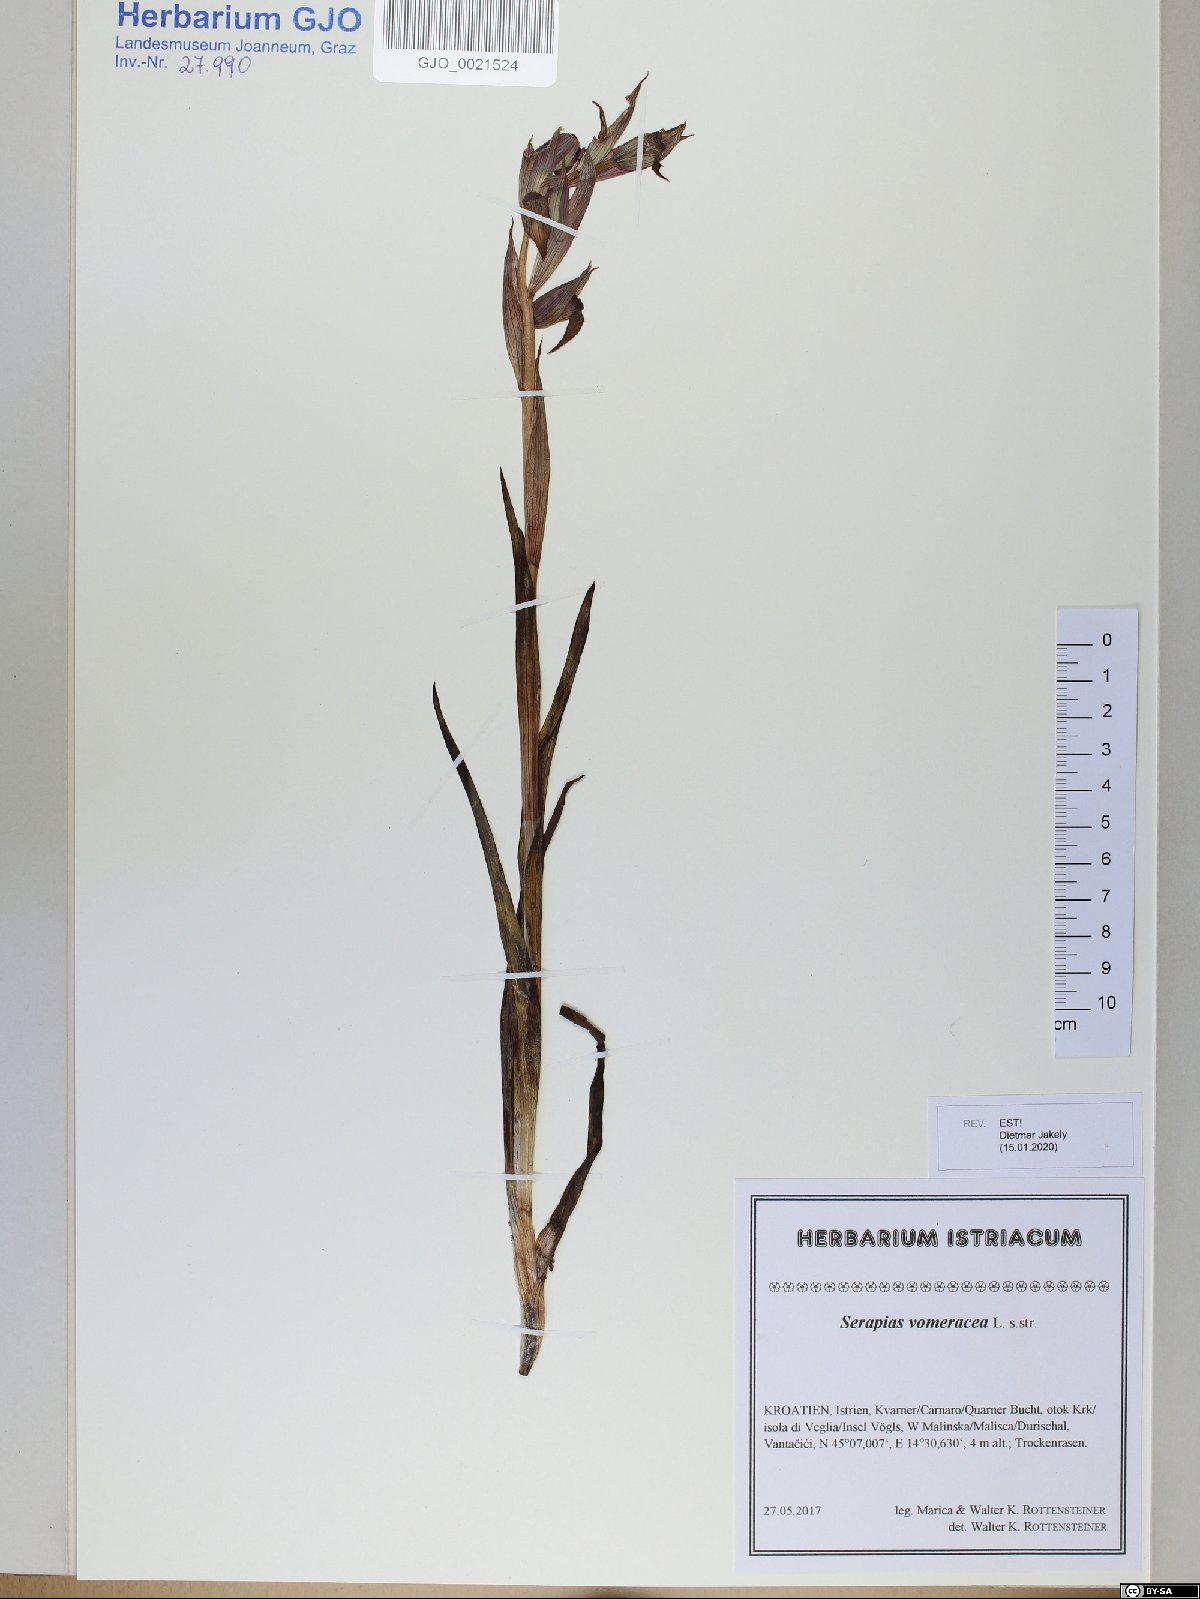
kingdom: Plantae
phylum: Tracheophyta
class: Liliopsida
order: Asparagales
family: Orchidaceae
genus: Serapias
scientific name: Serapias vomeracea
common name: Long-lipped tongue-orchid
